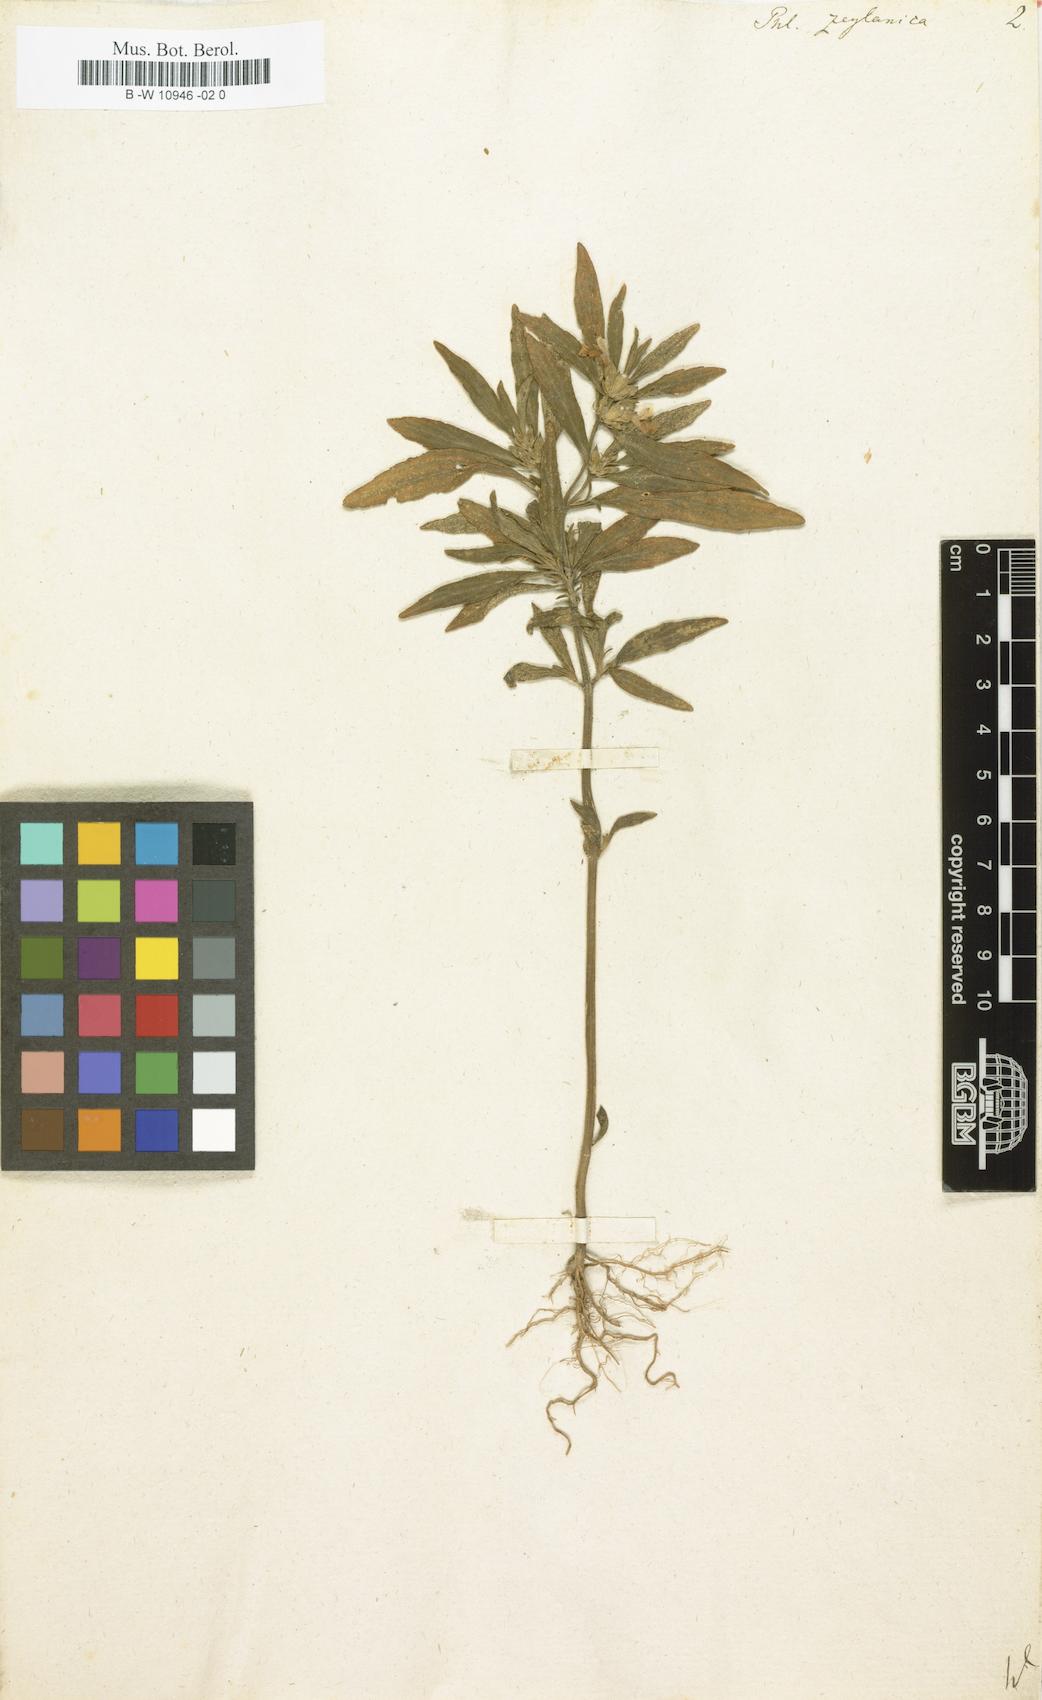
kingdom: Plantae
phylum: Tracheophyta
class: Magnoliopsida
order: Lamiales
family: Lamiaceae
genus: Phlomis
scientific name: Phlomis zeylanica
